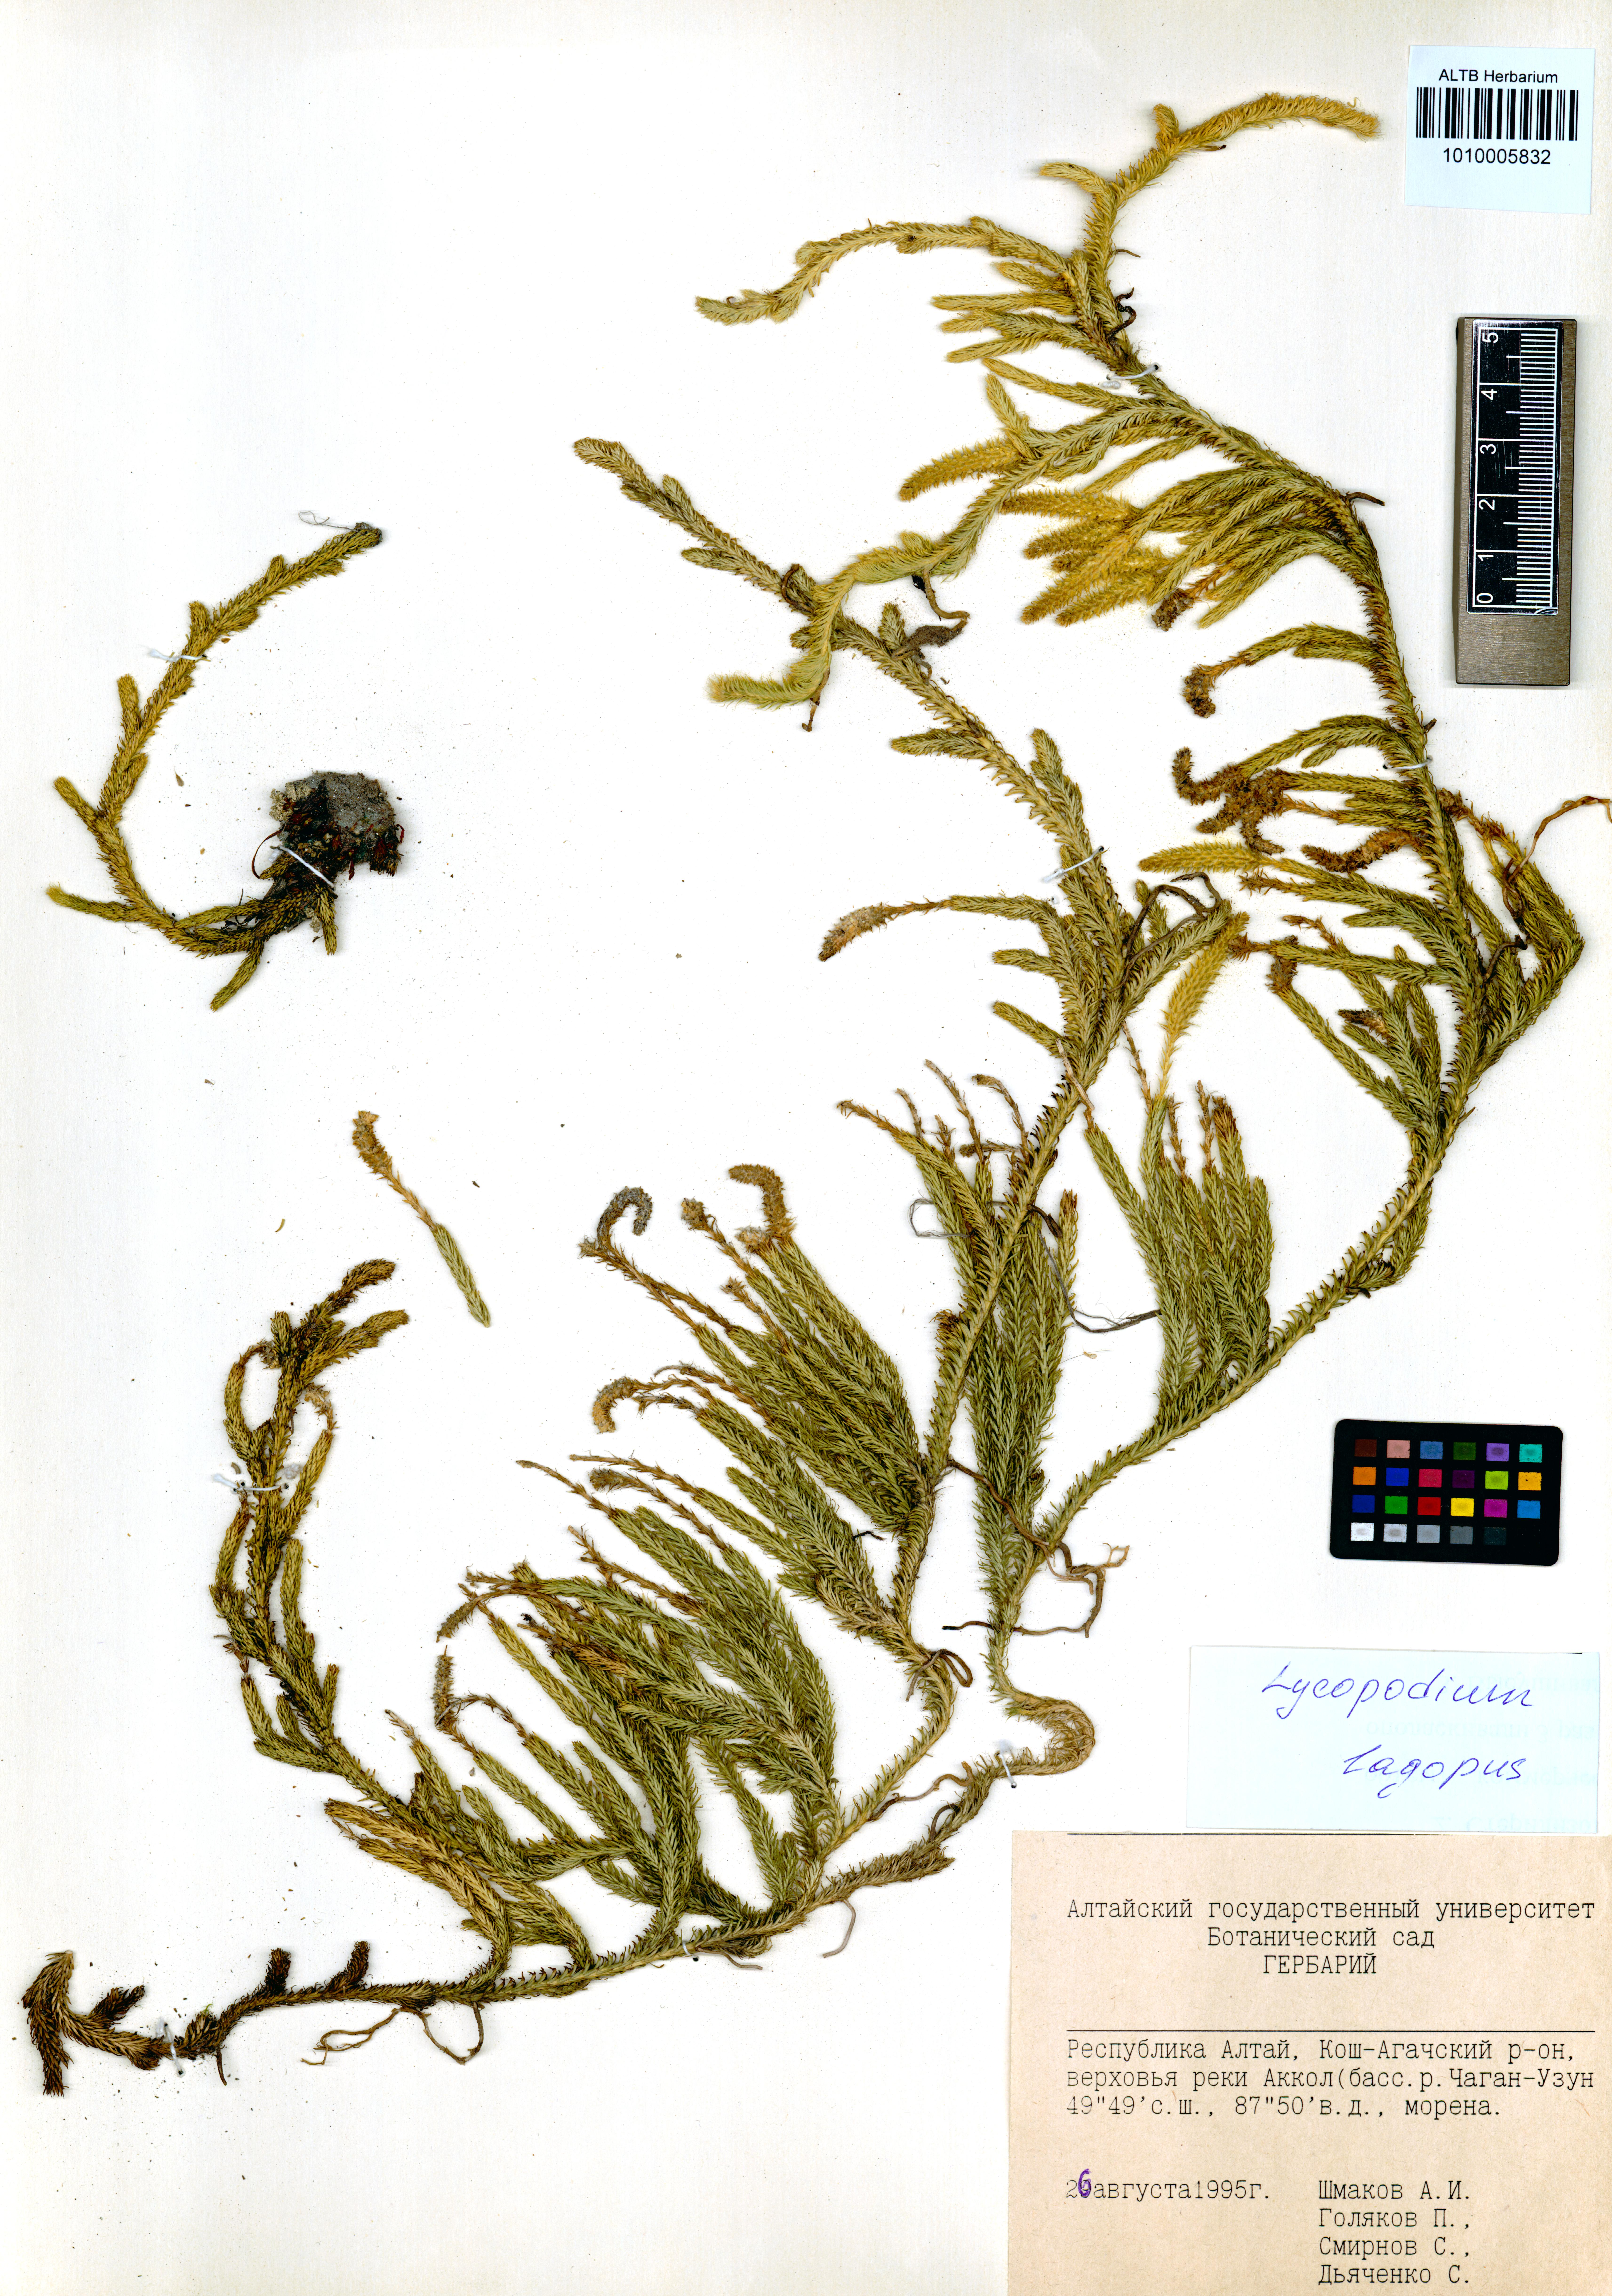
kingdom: Plantae
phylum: Tracheophyta
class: Lycopodiopsida
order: Lycopodiales
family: Lycopodiaceae
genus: Lycopodium
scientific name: Lycopodium lagopus
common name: One-cone clubmoss
